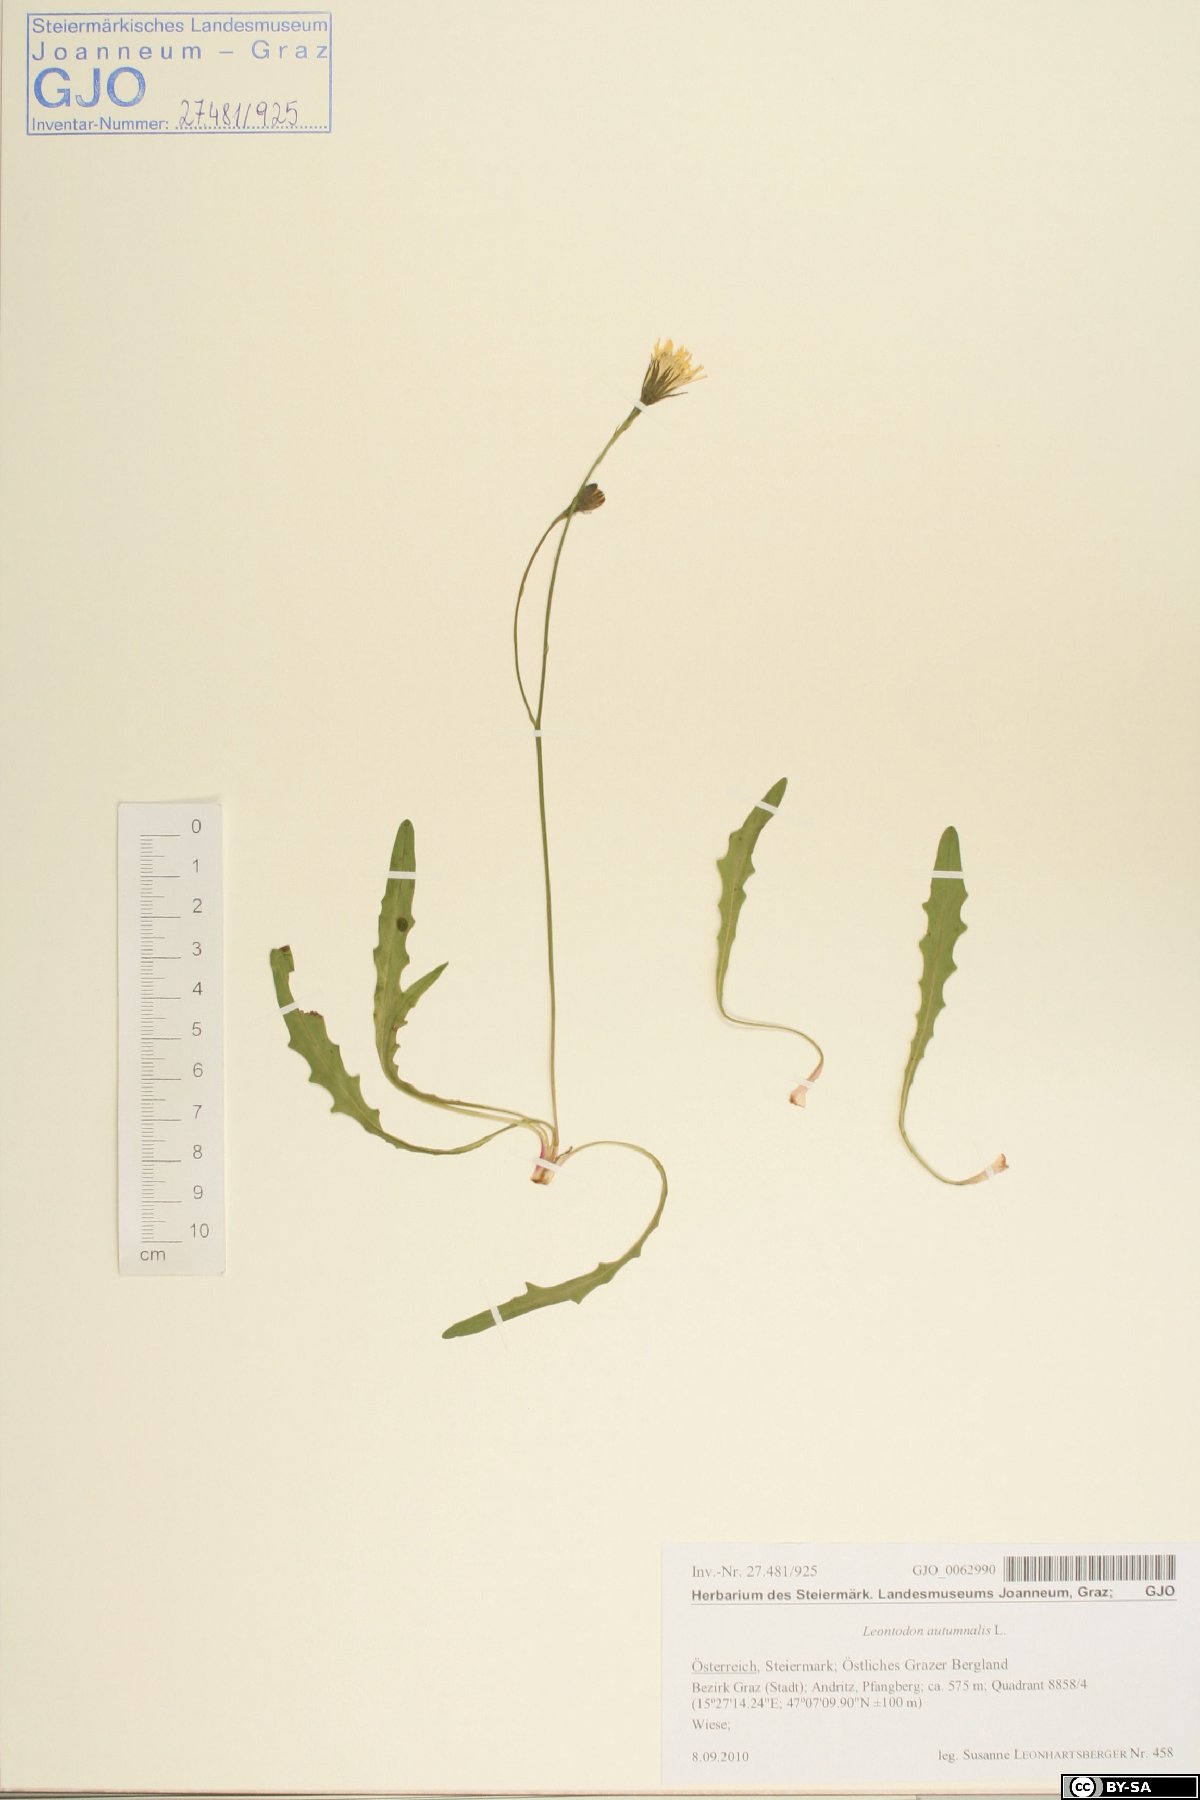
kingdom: Plantae
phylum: Tracheophyta
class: Magnoliopsida
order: Asterales
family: Asteraceae
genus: Scorzoneroides
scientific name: Scorzoneroides autumnalis
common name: Autumn hawkbit
